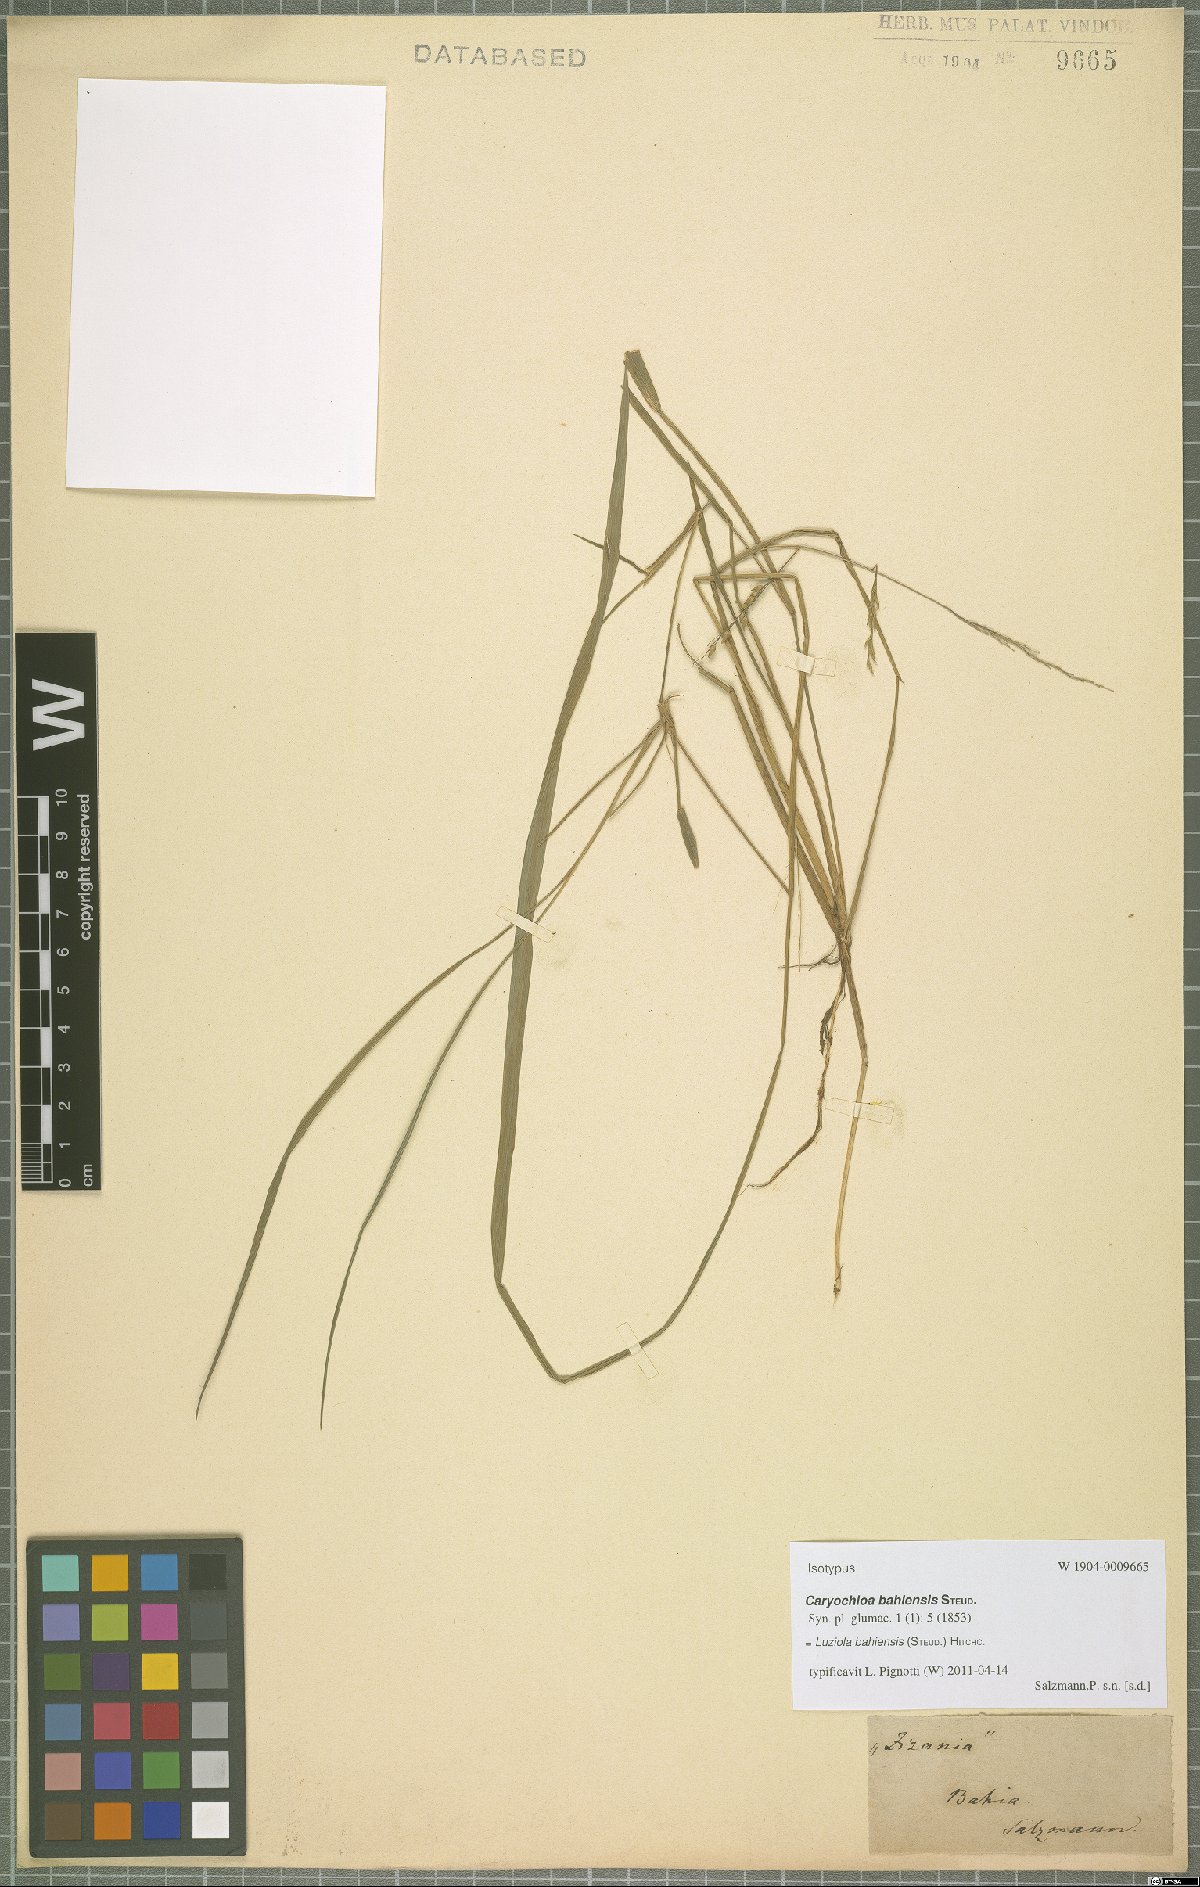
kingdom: Plantae
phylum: Tracheophyta
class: Liliopsida
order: Poales
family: Poaceae
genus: Luziola
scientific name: Luziola bahiensis
